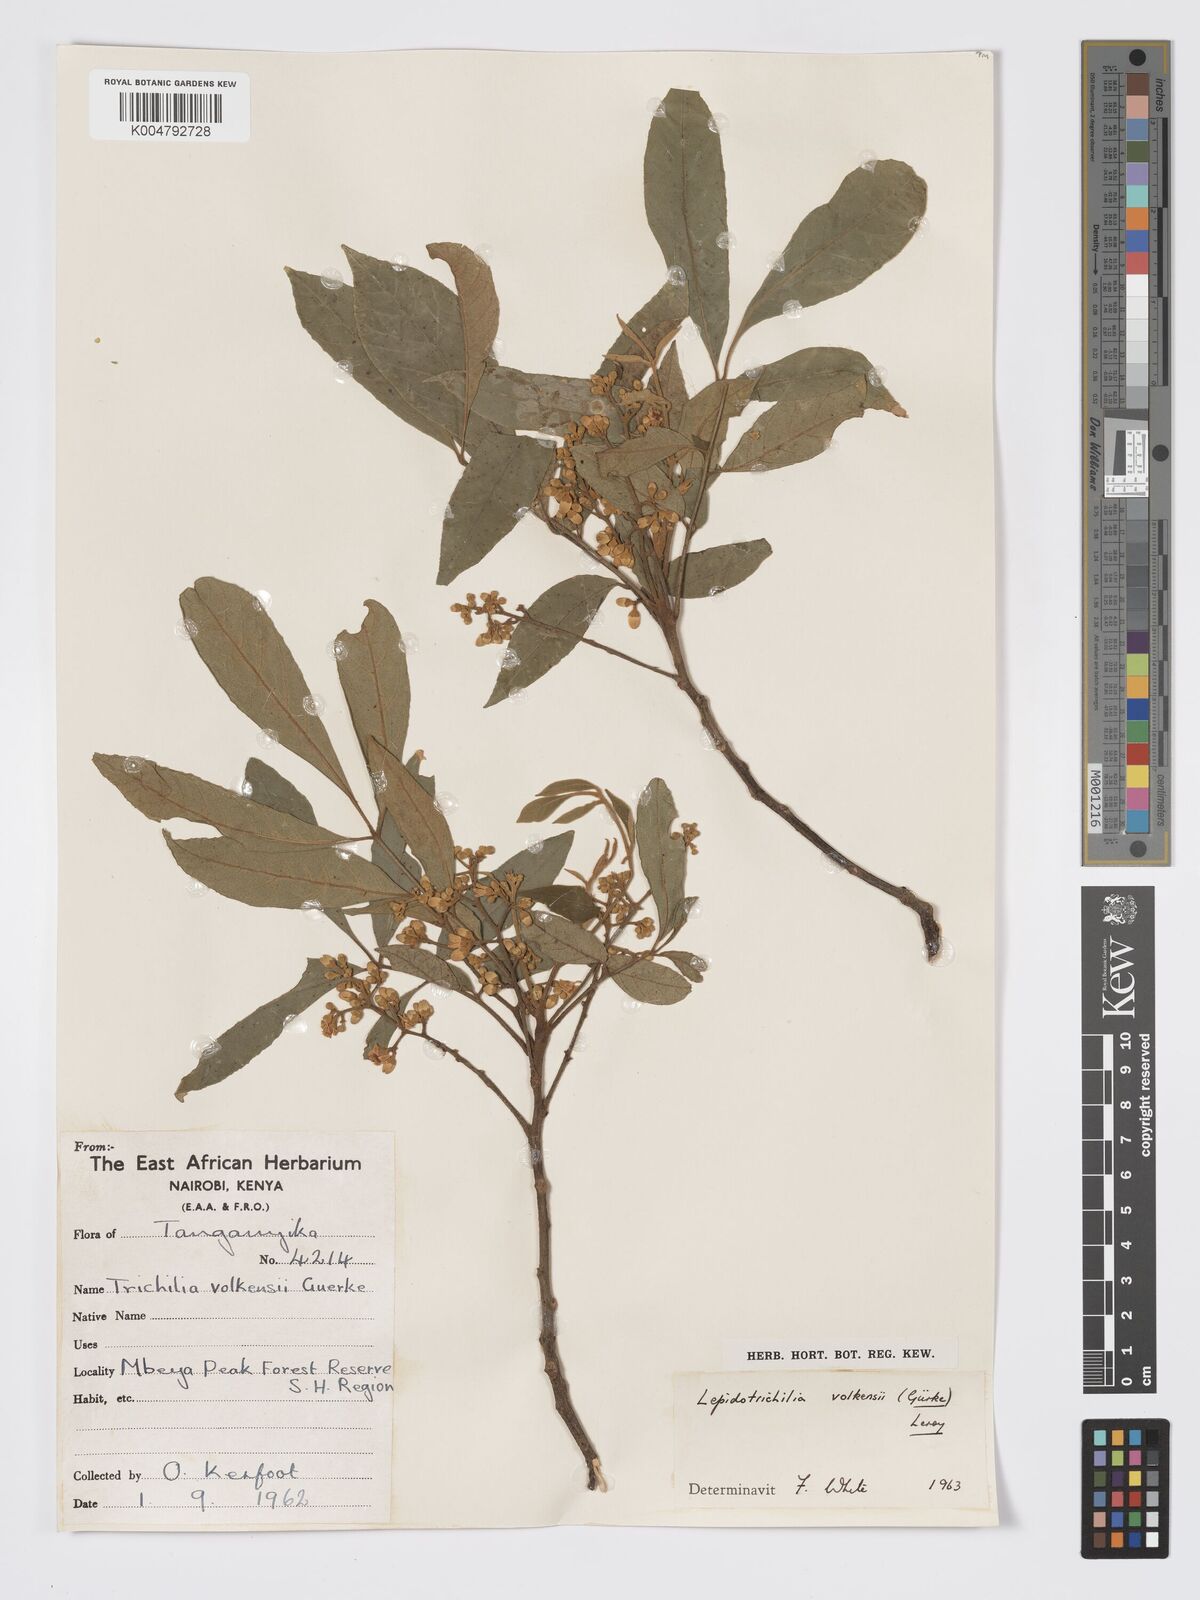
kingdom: Plantae
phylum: Tracheophyta
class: Magnoliopsida
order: Sapindales
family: Meliaceae
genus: Lepidotrichilia
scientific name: Lepidotrichilia volkensii
